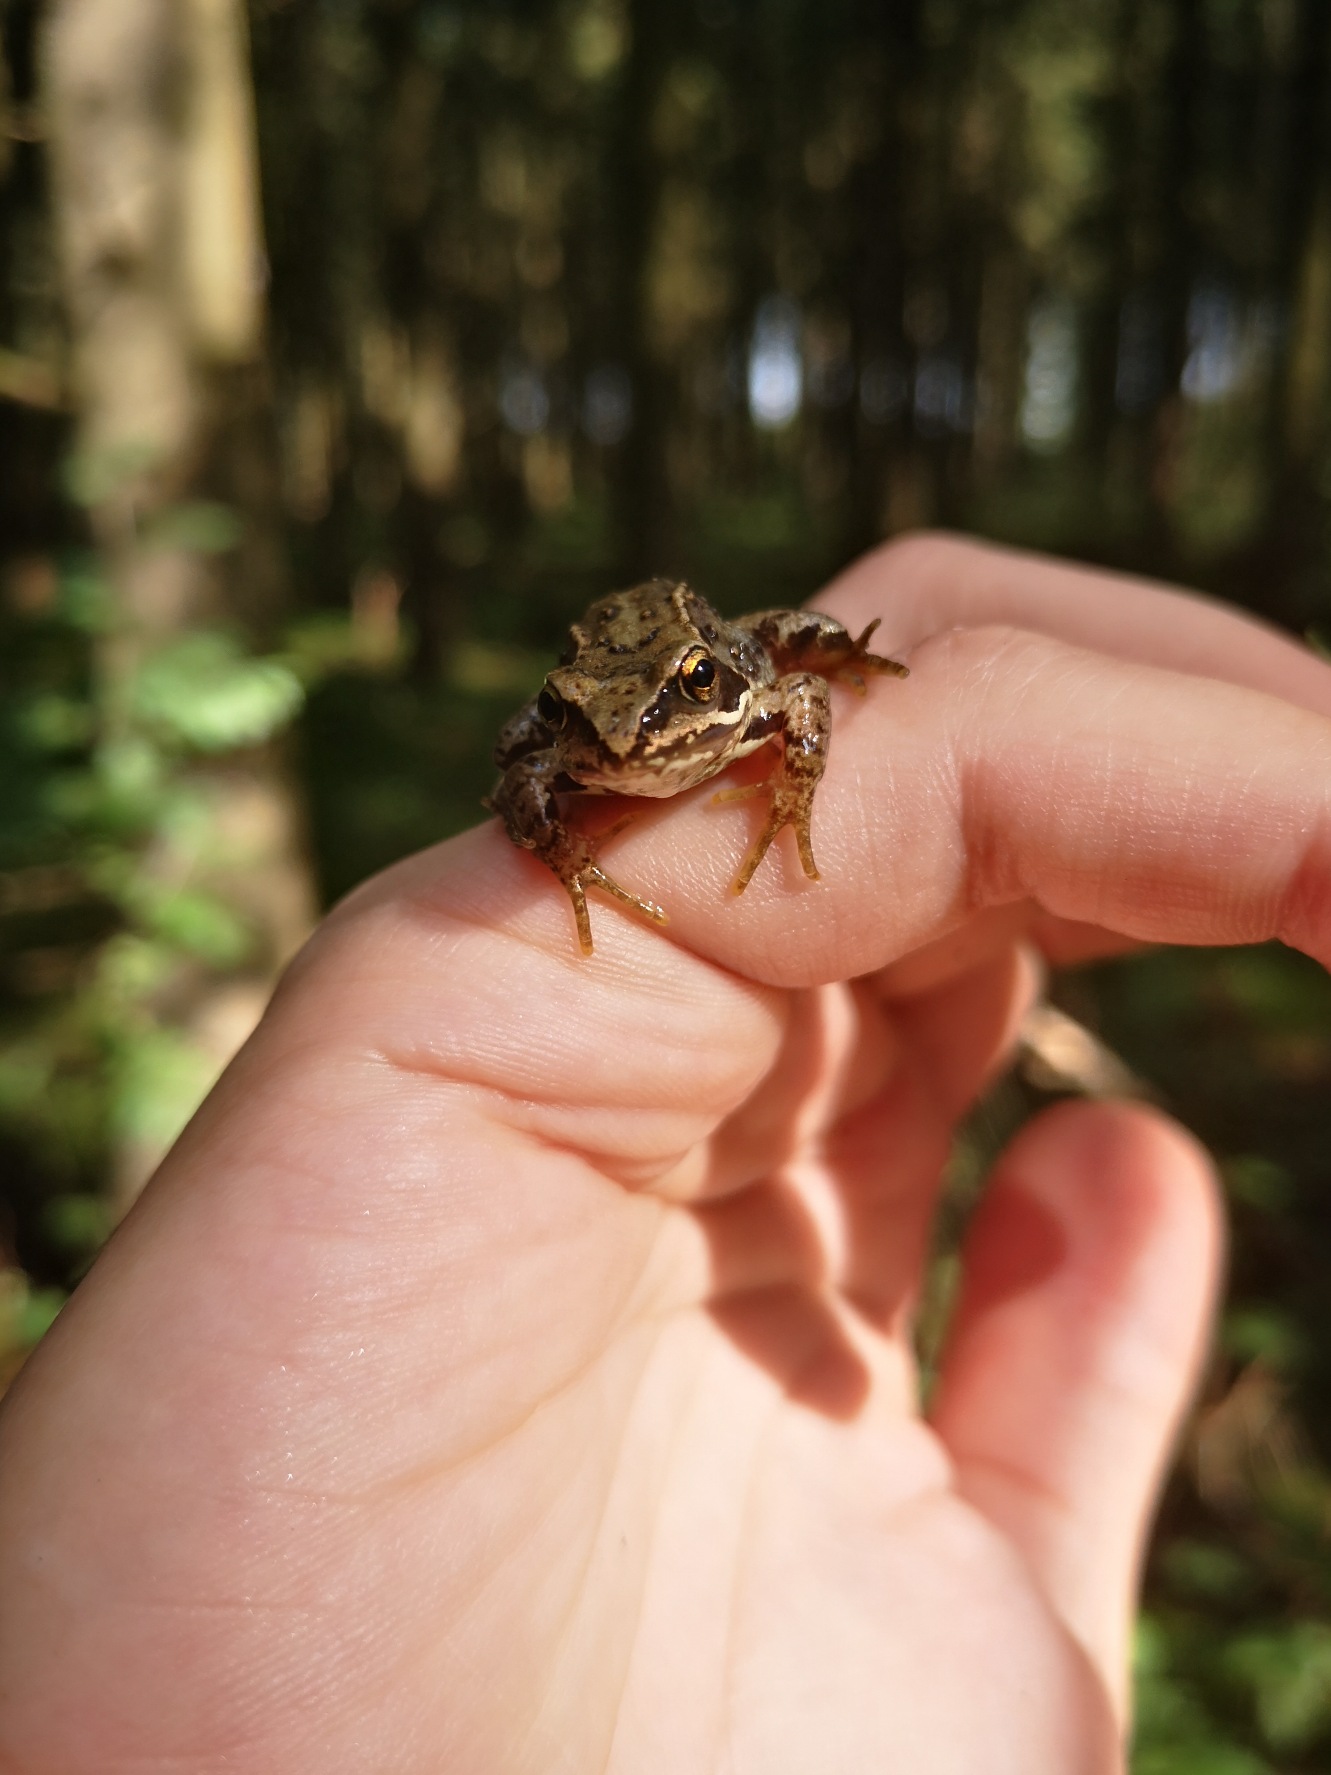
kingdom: Animalia
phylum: Chordata
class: Amphibia
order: Anura
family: Ranidae
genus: Rana
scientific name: Rana temporaria
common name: Butsnudet frø
